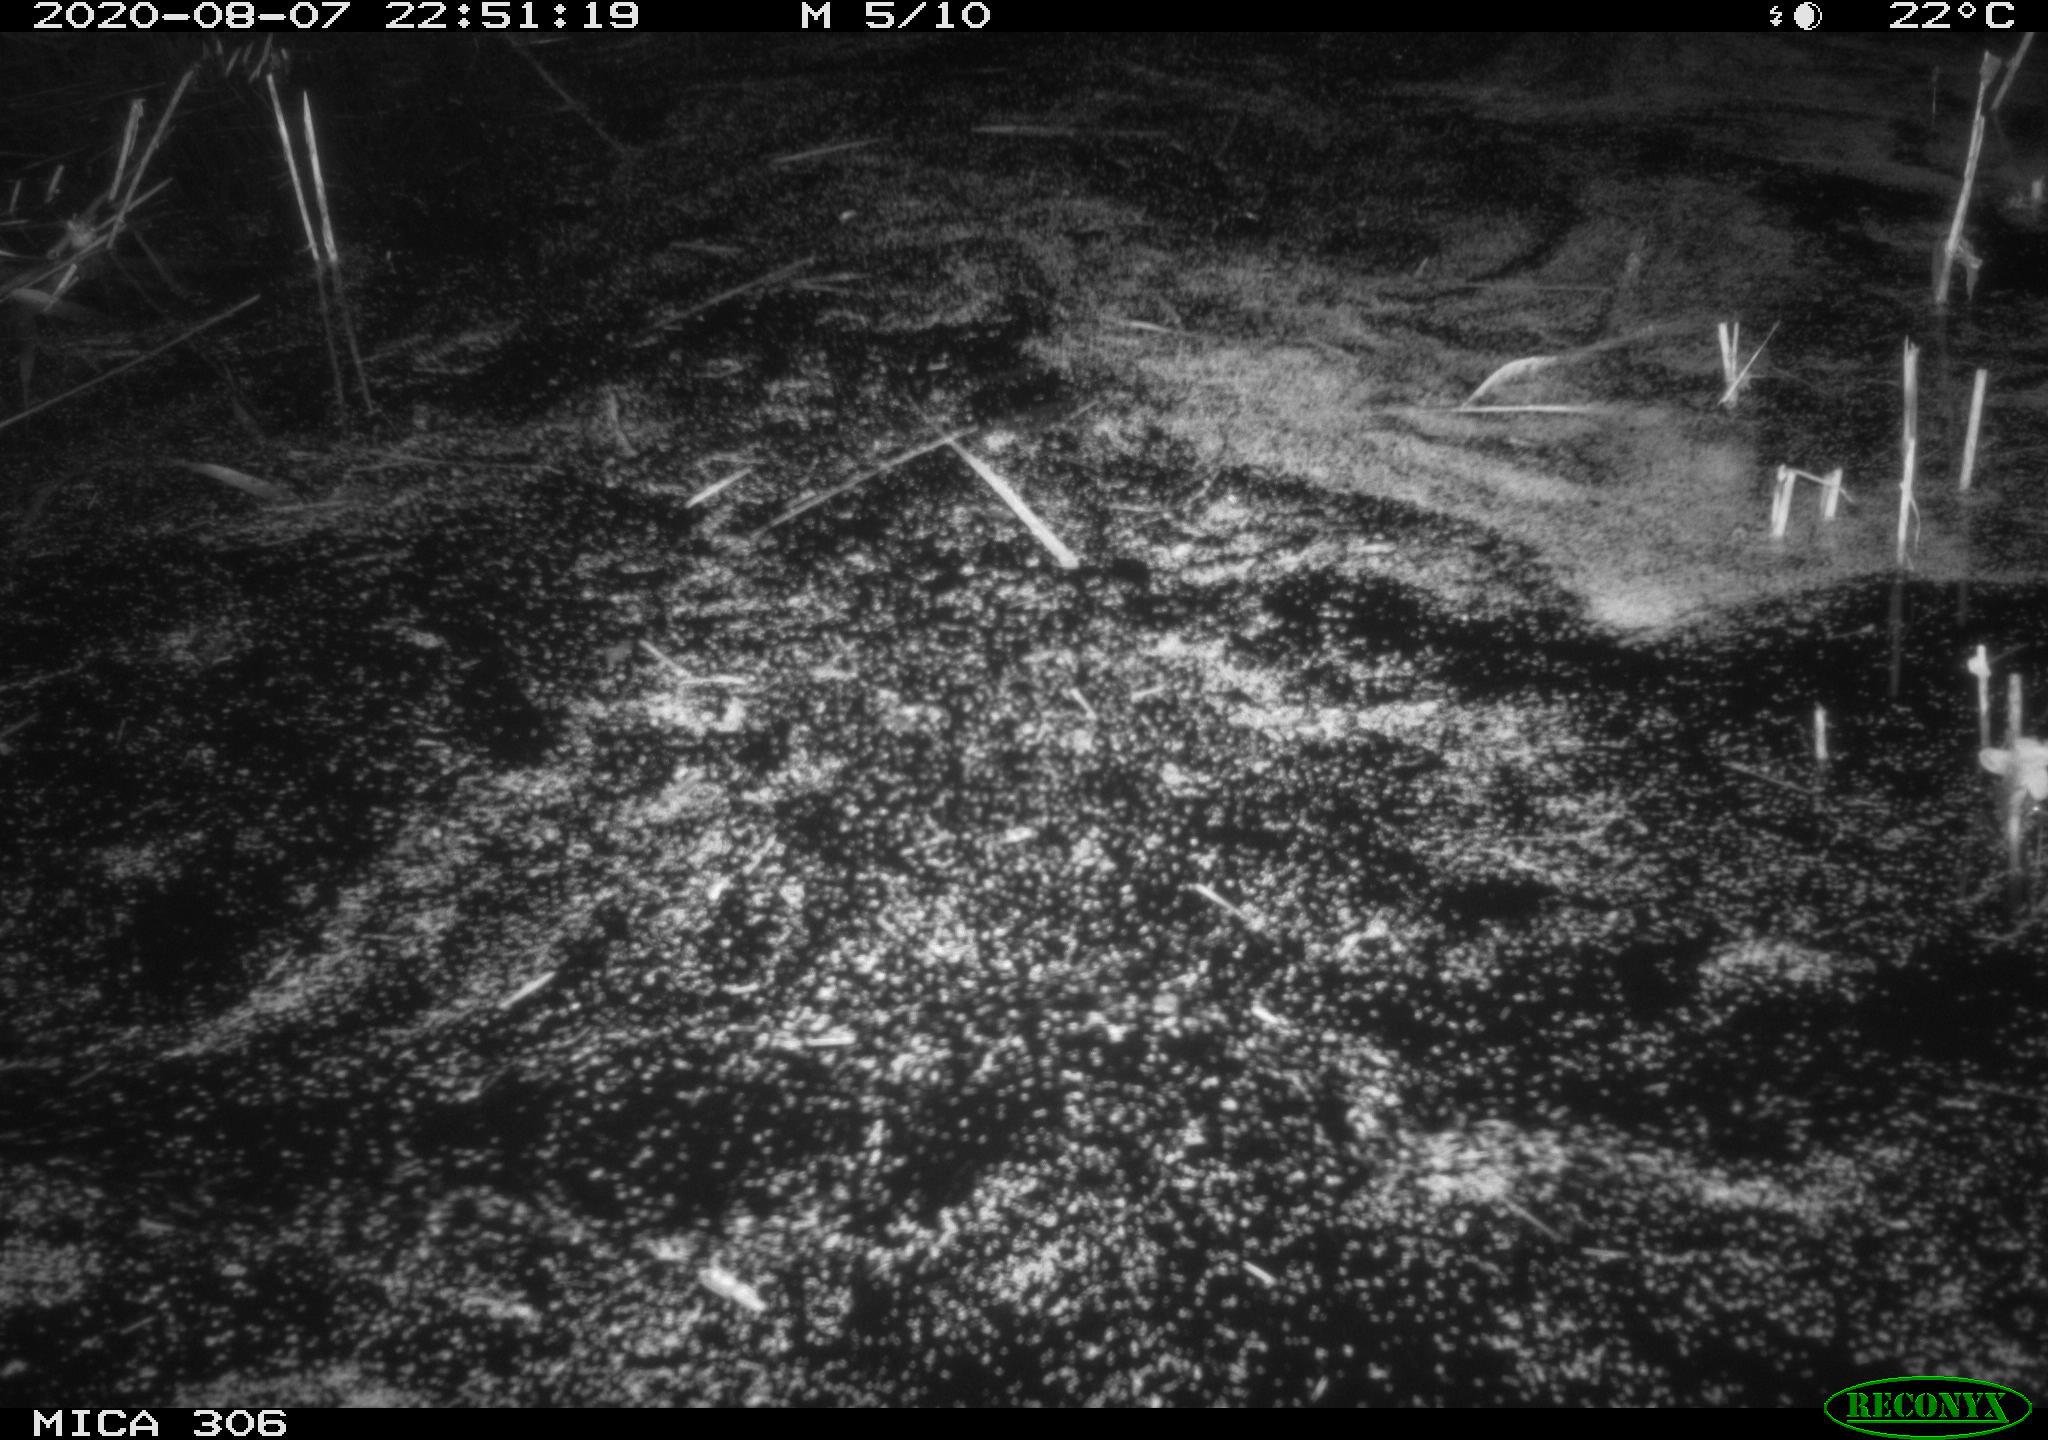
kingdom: Animalia
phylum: Chordata
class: Mammalia
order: Rodentia
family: Muridae
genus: Rattus
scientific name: Rattus norvegicus
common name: Brown rat
